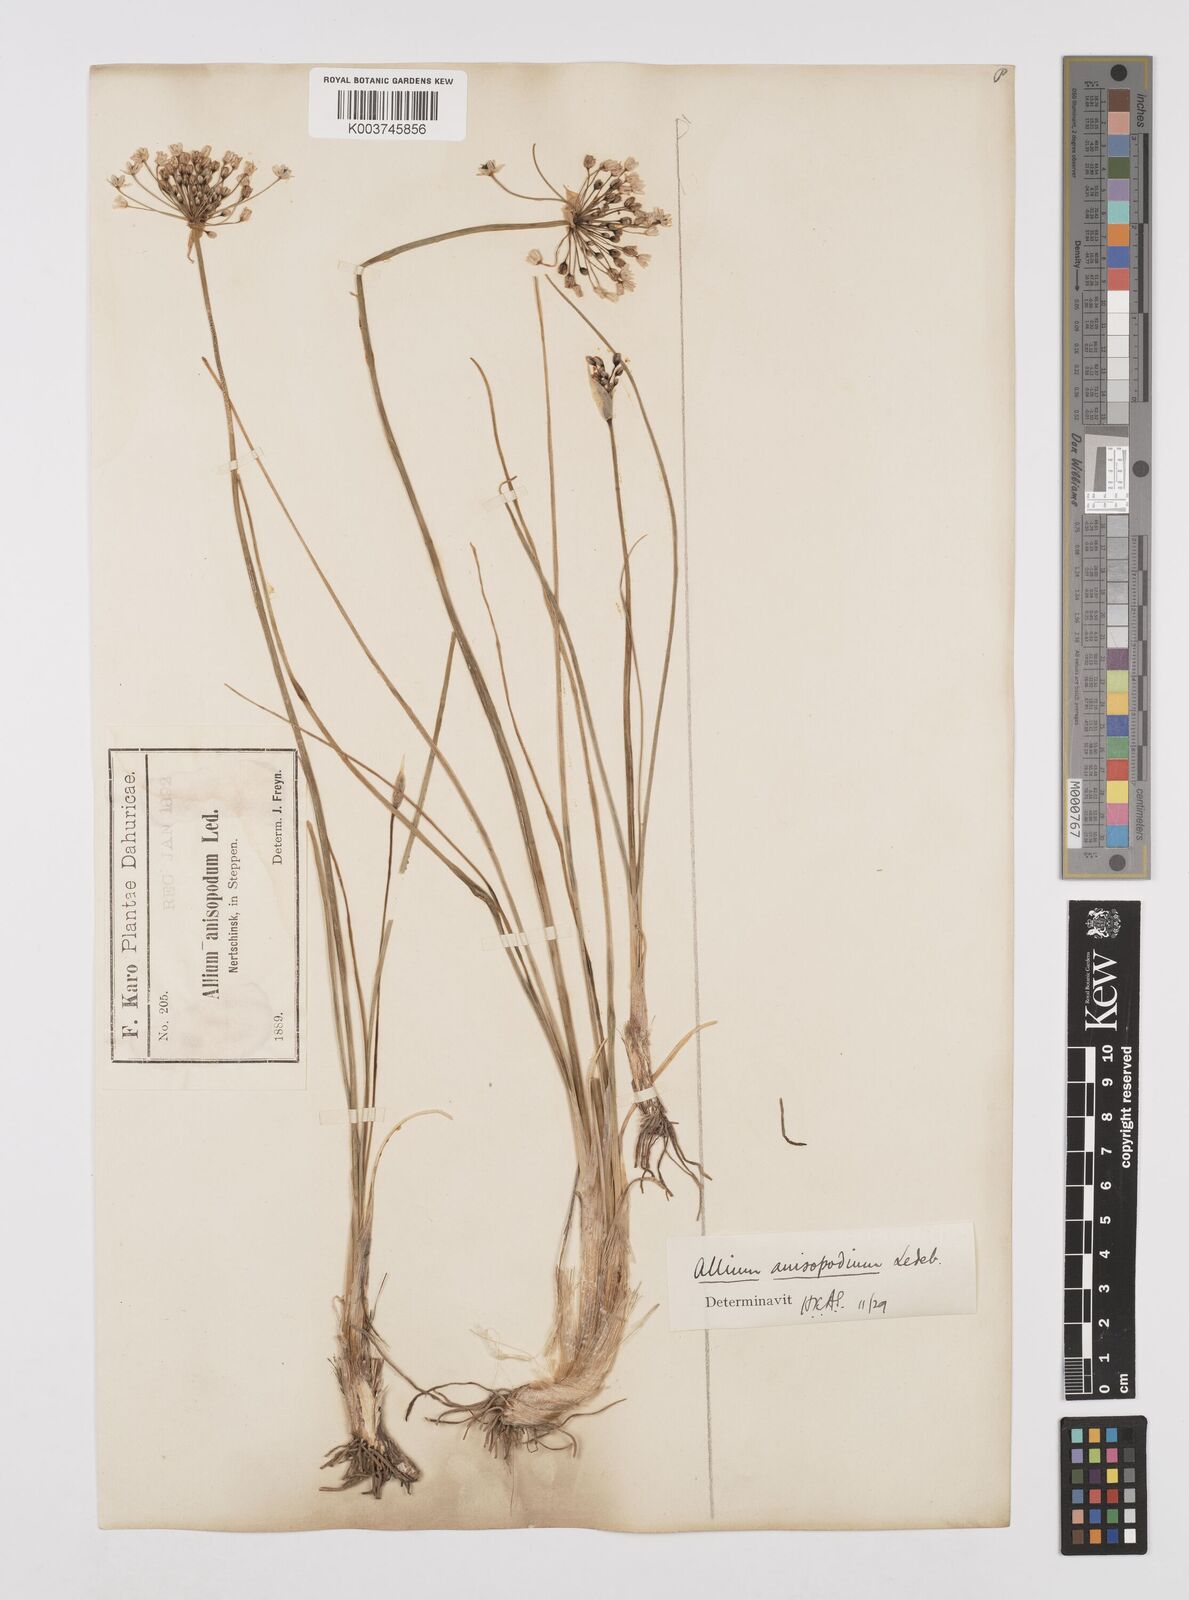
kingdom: Plantae
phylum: Tracheophyta
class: Liliopsida
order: Asparagales
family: Amaryllidaceae
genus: Allium
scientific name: Allium anisopodium
